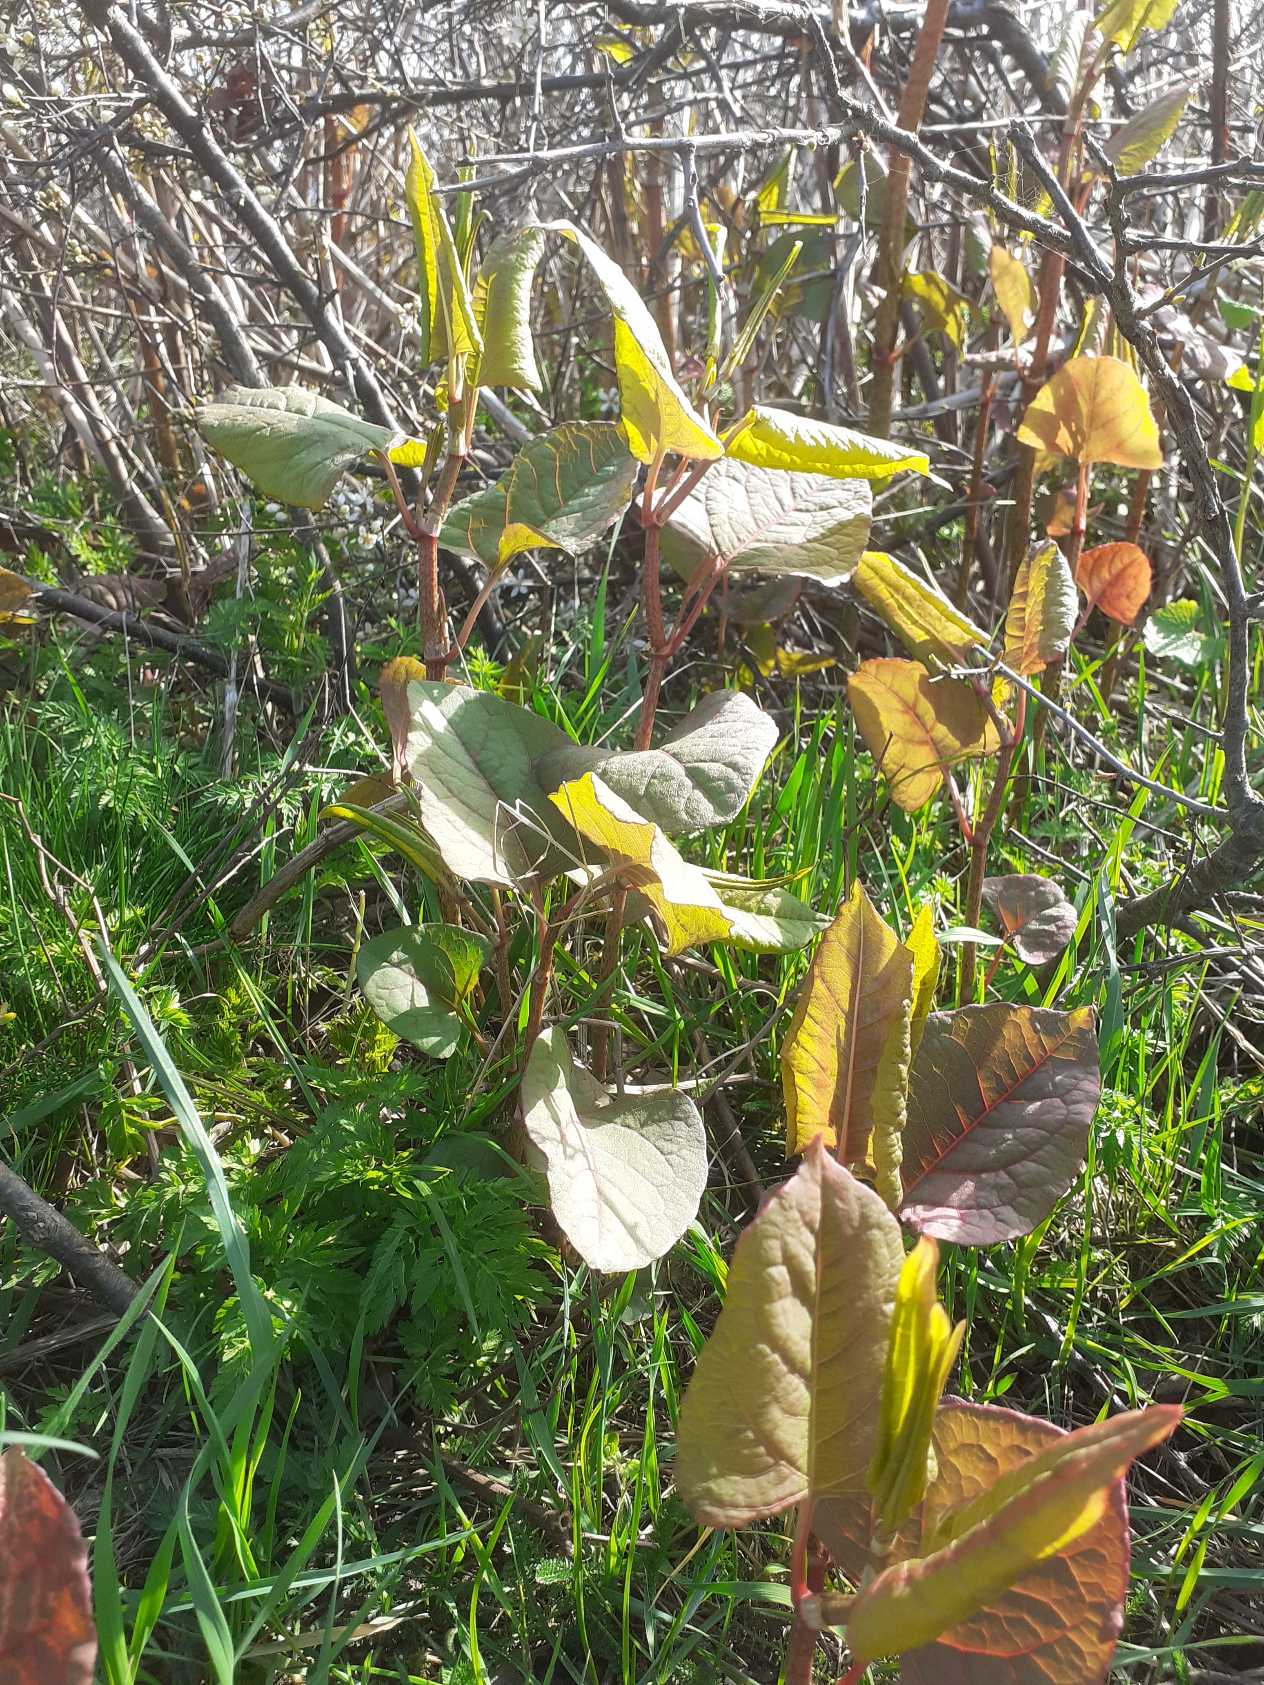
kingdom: Plantae
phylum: Tracheophyta
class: Magnoliopsida
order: Caryophyllales
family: Polygonaceae
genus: Reynoutria
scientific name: Reynoutria japonica
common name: Japan-pileurt
